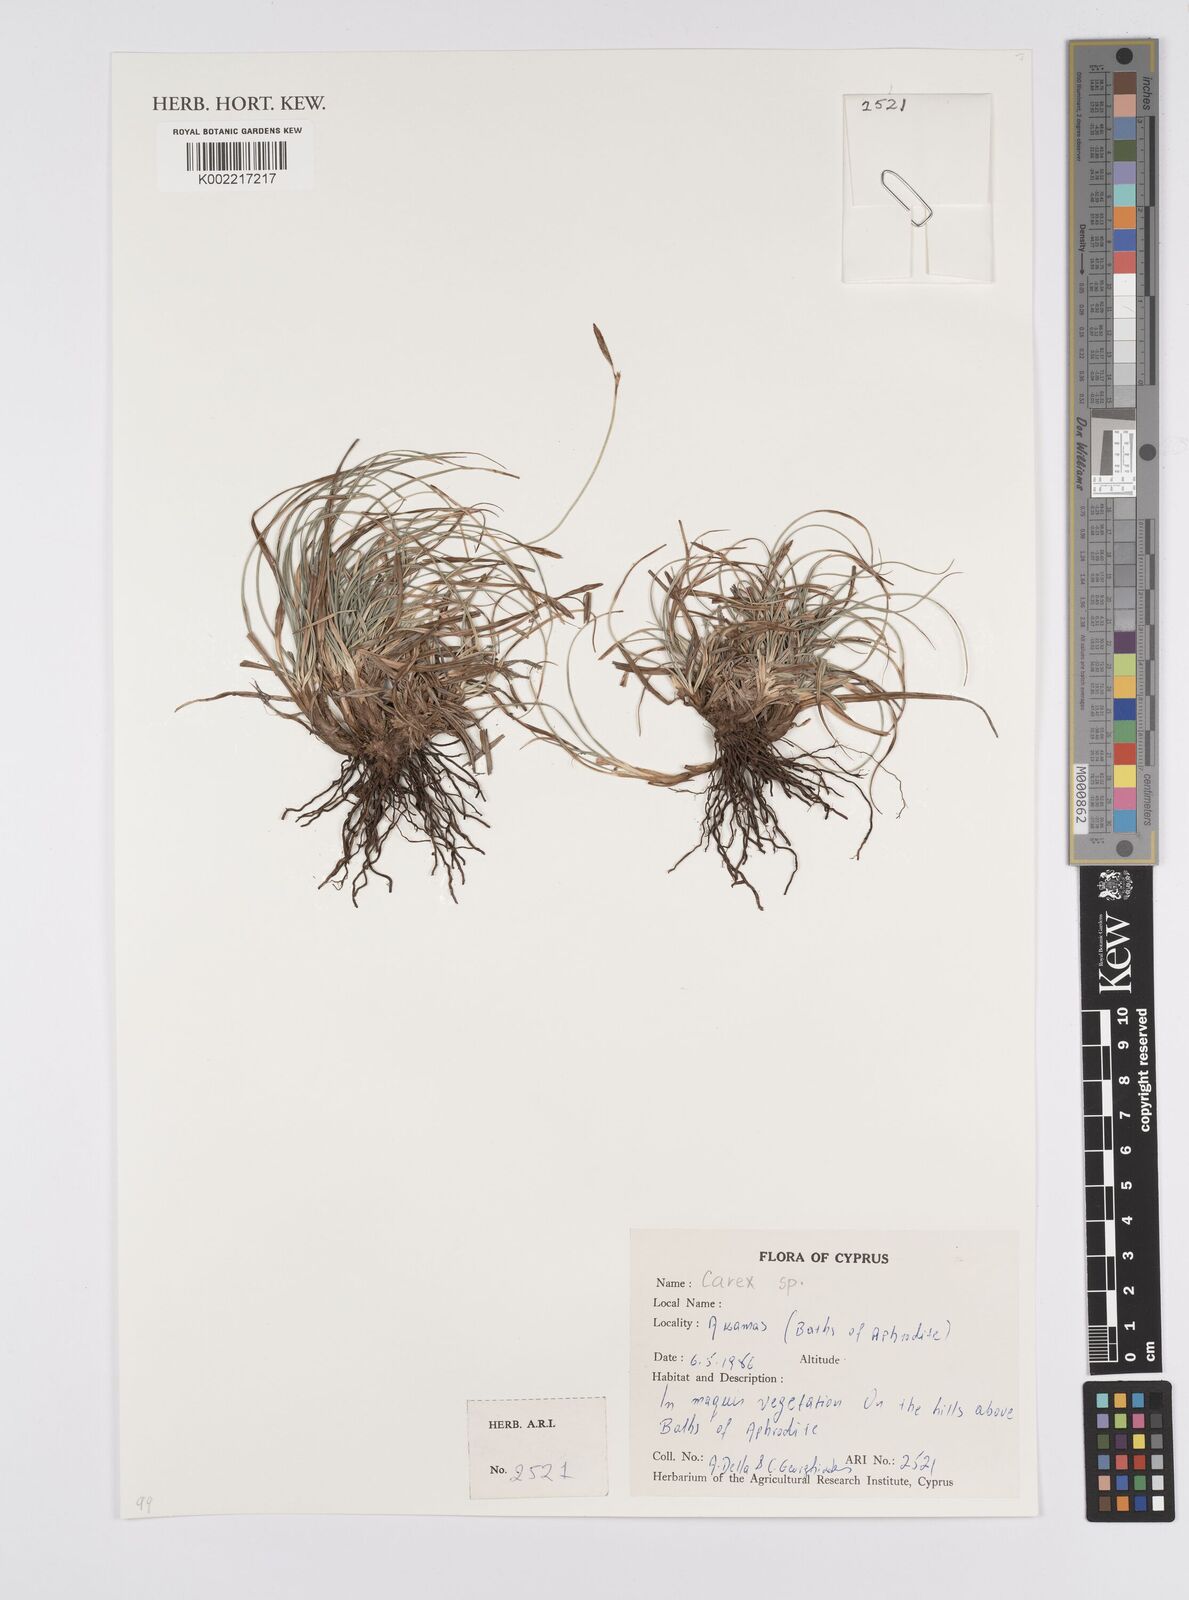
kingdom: Plantae
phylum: Tracheophyta
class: Liliopsida
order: Poales
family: Cyperaceae
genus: Carex
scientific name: Carex
